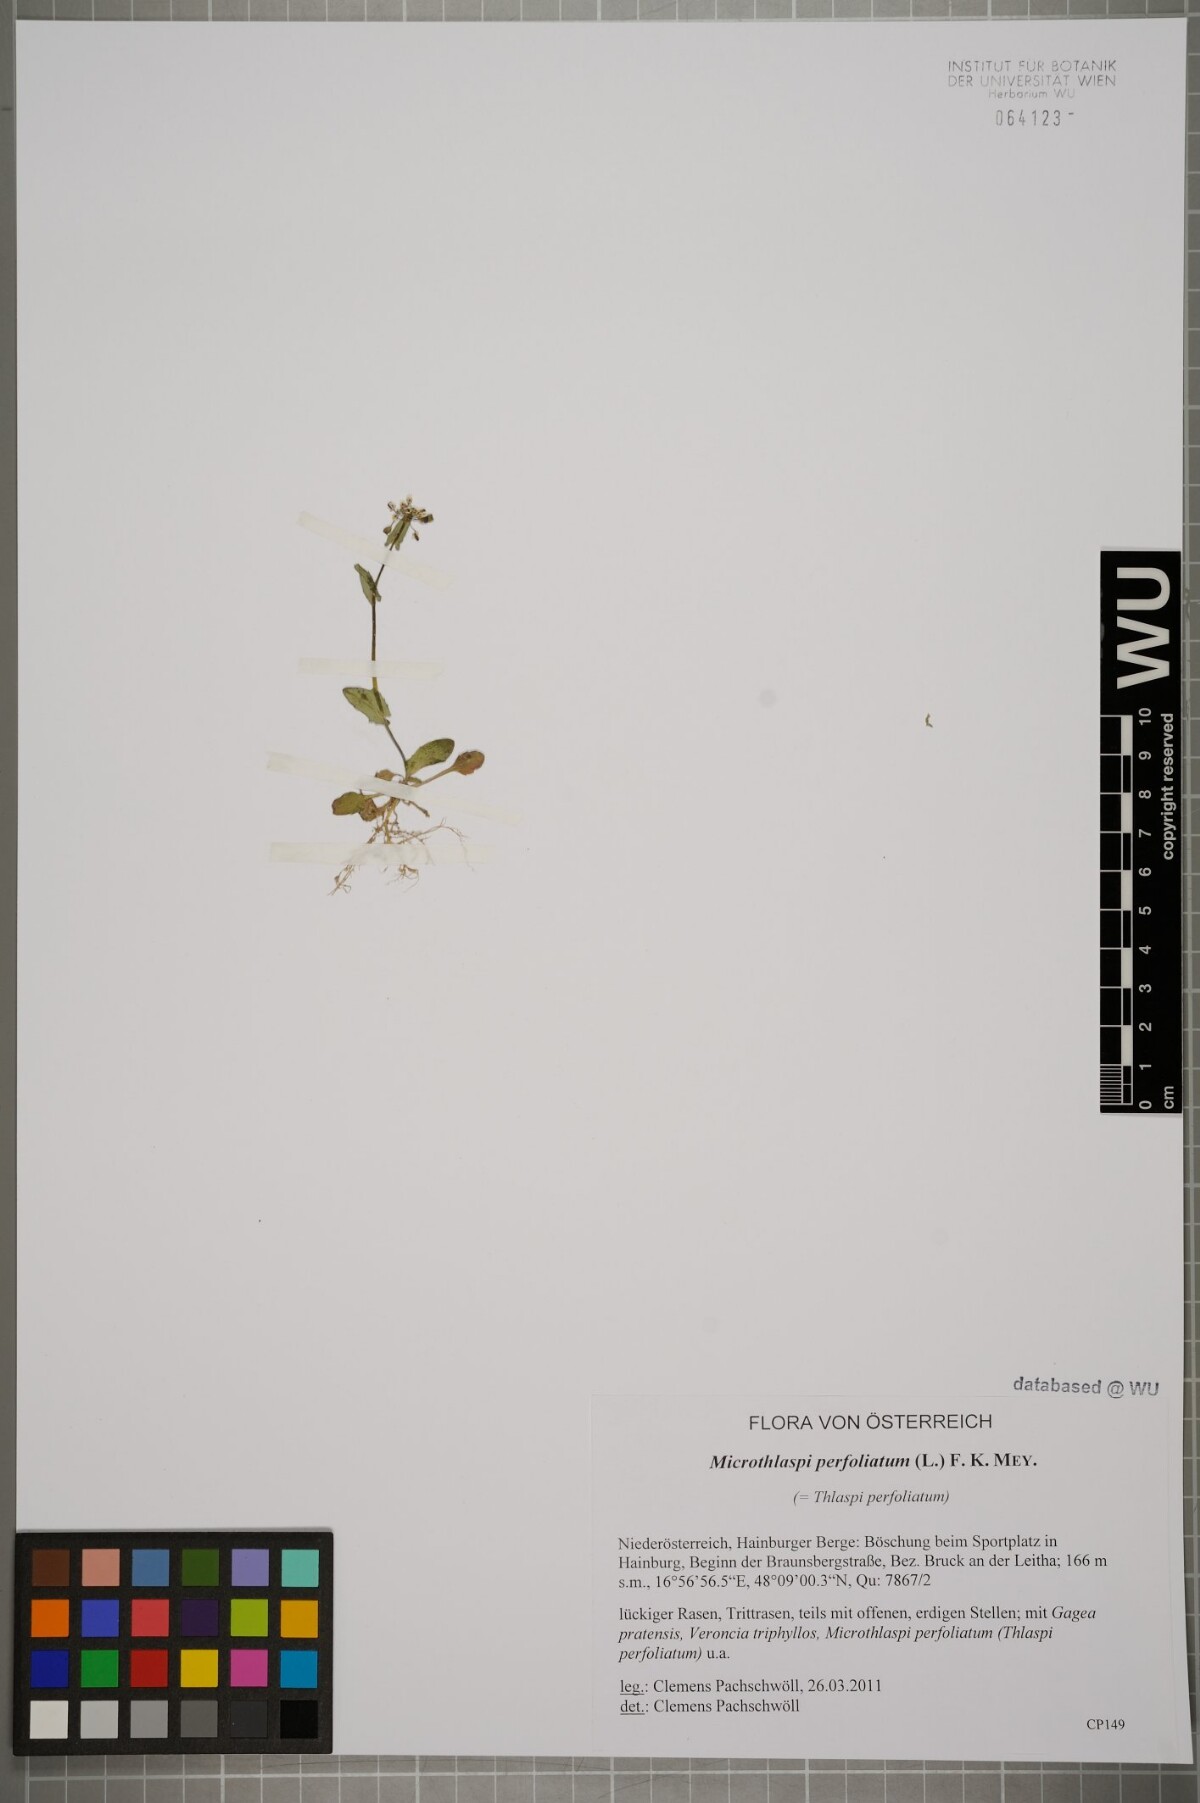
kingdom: Plantae
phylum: Tracheophyta
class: Magnoliopsida
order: Brassicales
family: Brassicaceae
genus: Noccaea
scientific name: Noccaea perfoliata
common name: Perfoliate pennycress
